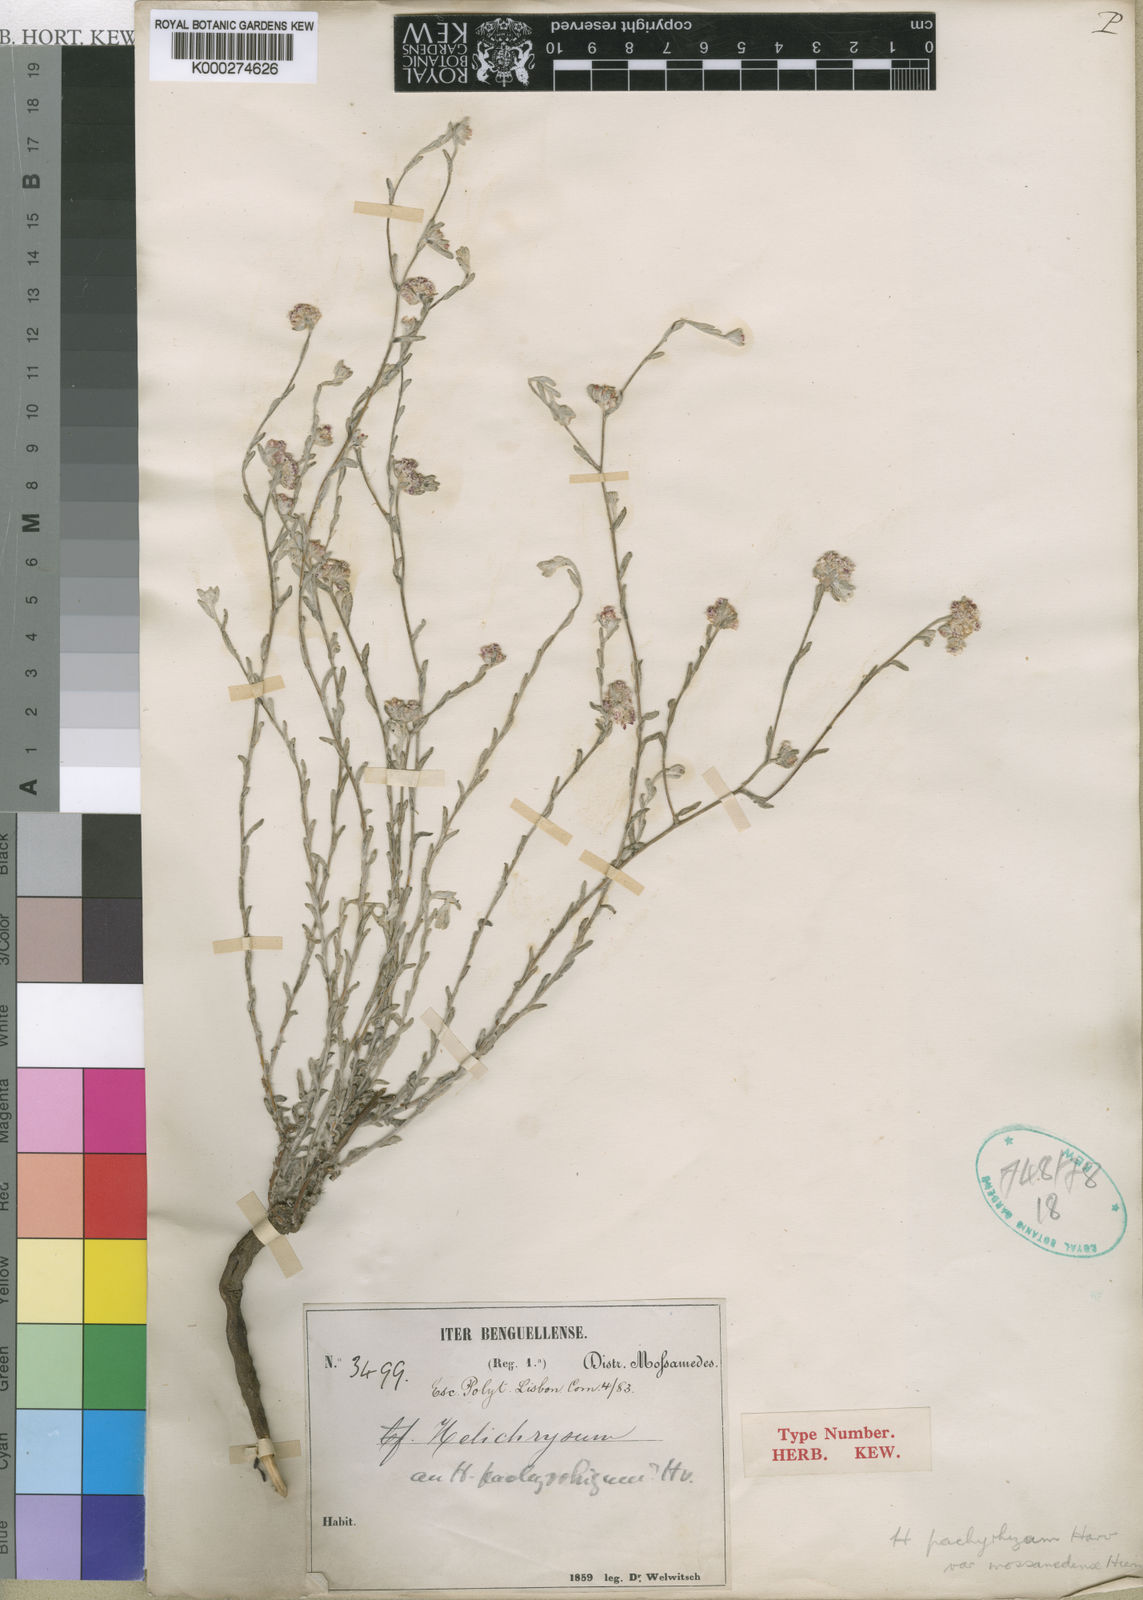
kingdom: Plantae
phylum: Tracheophyta
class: Magnoliopsida
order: Asterales
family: Asteraceae
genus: Helichrysum
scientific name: Helichrysum candolleanum
